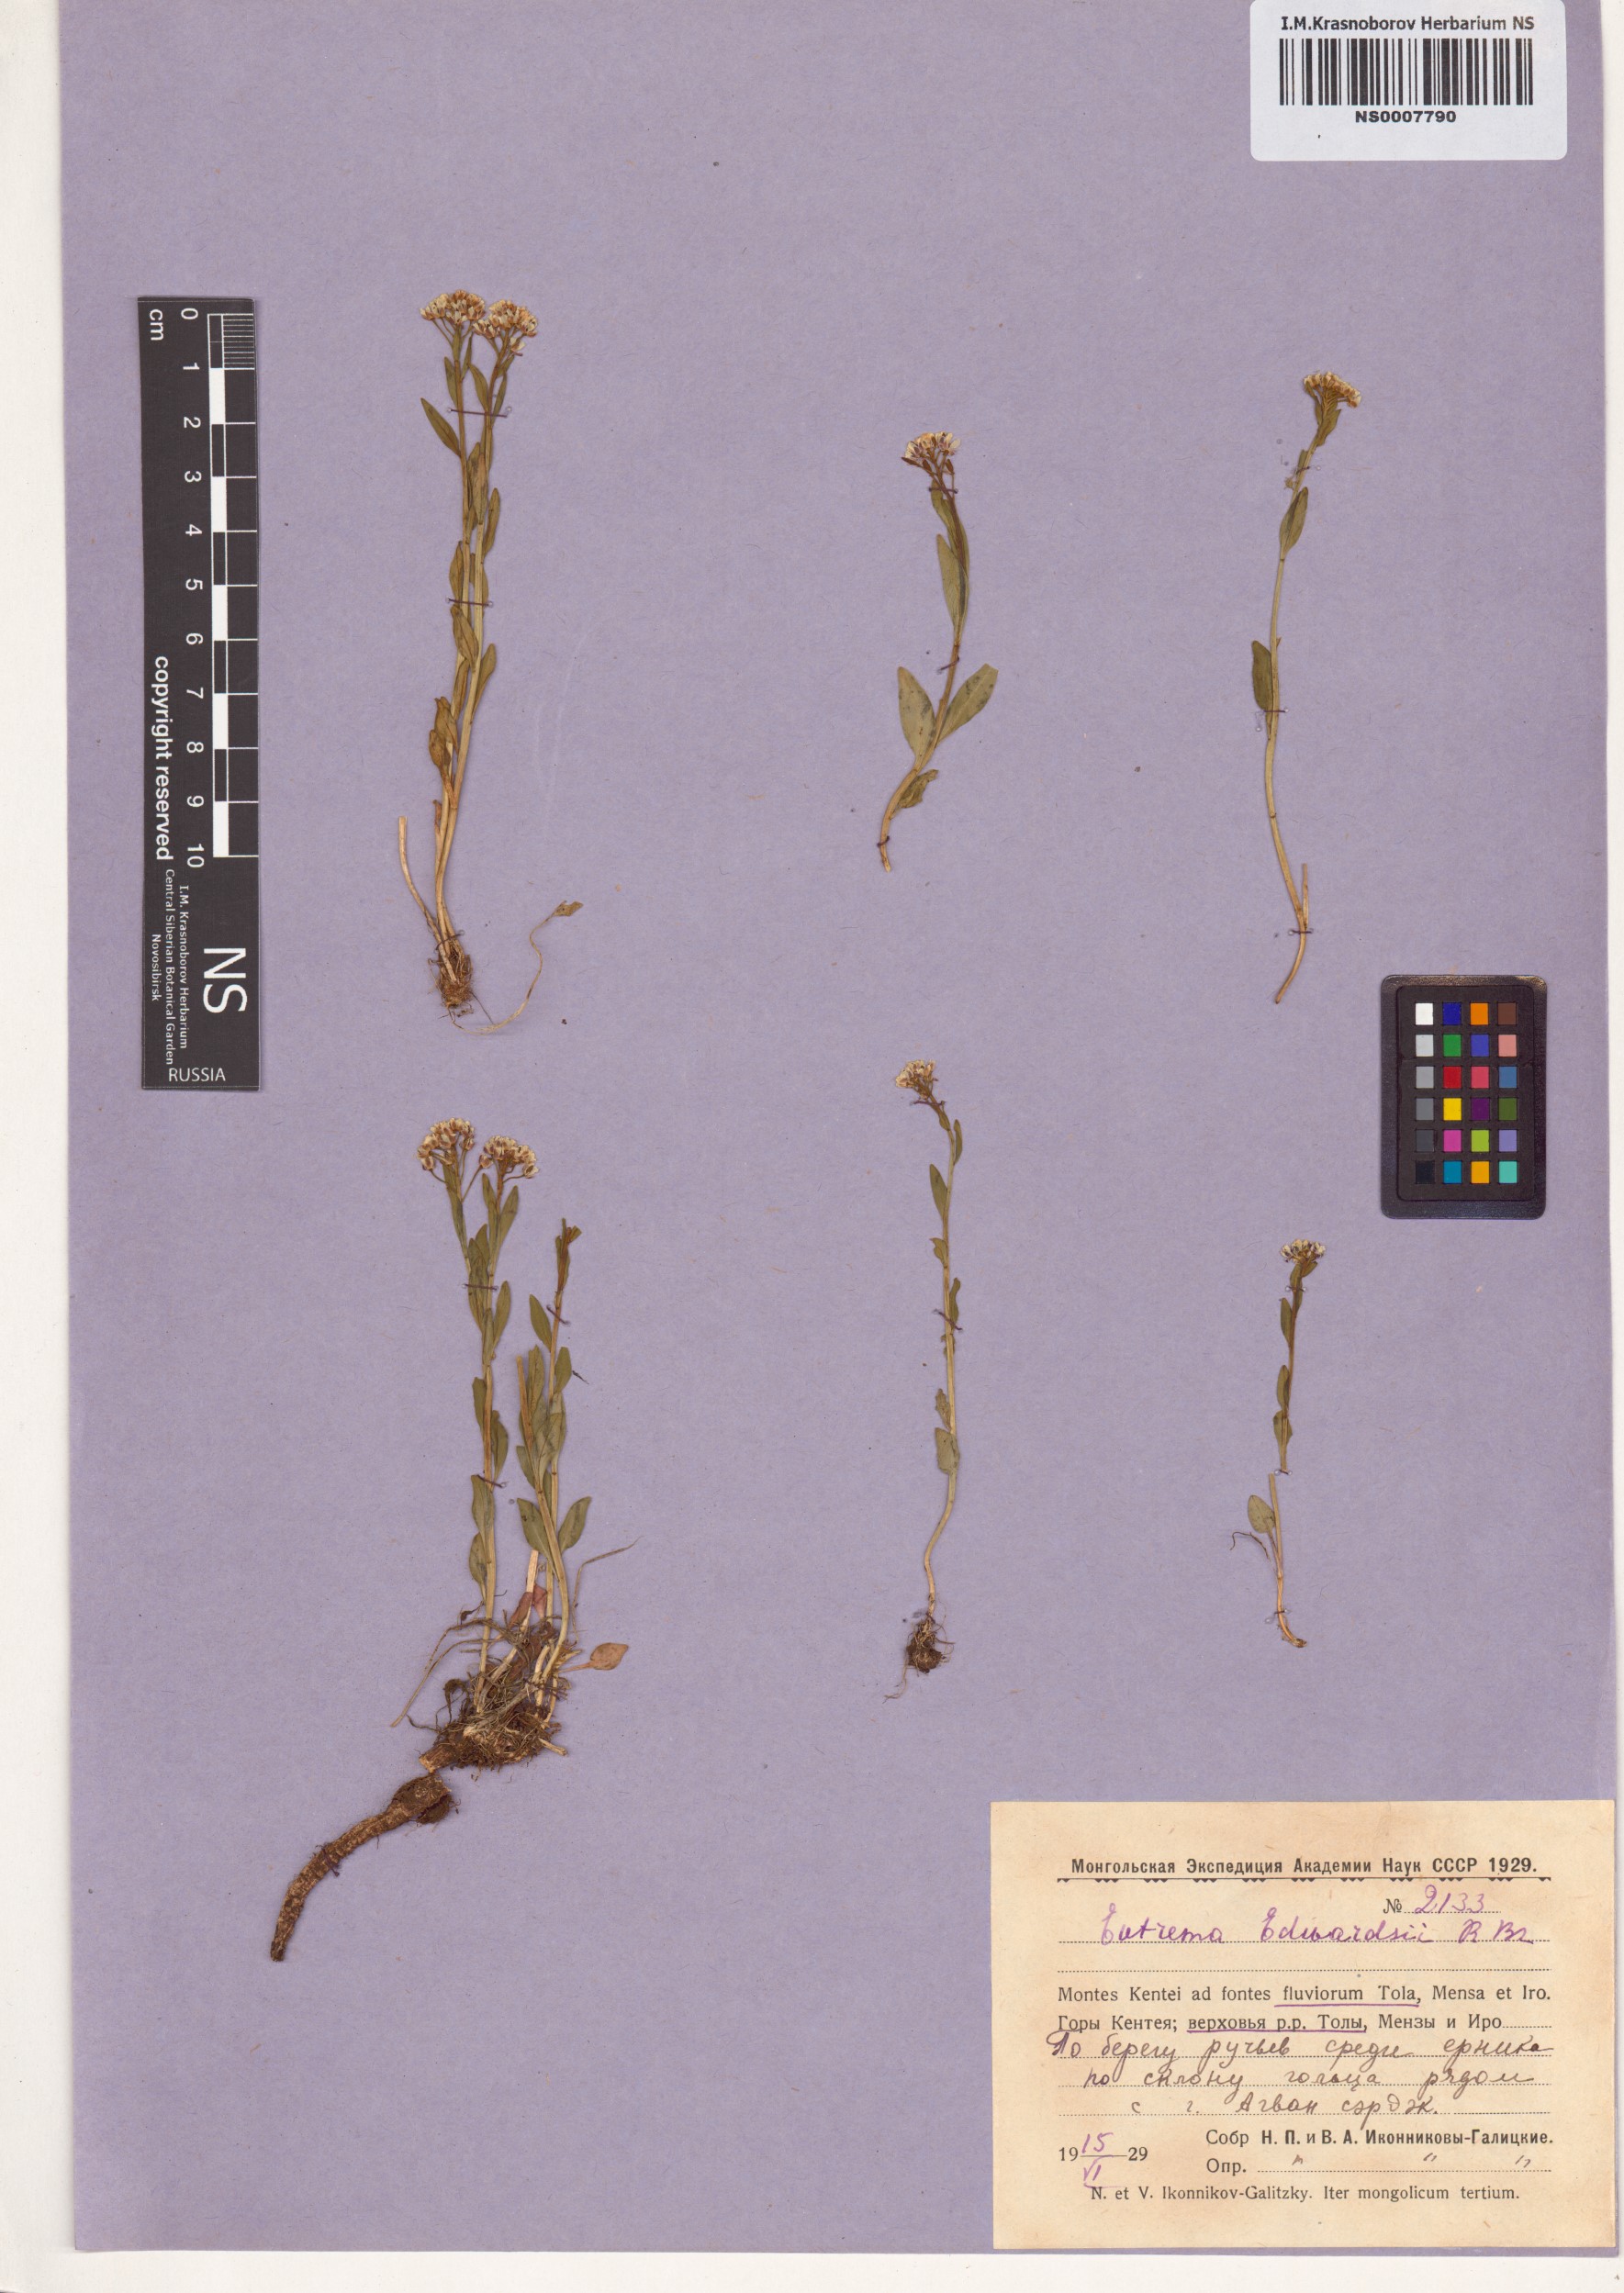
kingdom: Plantae
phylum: Tracheophyta
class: Magnoliopsida
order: Brassicales
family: Brassicaceae
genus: Eutrema
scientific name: Eutrema edwardsii
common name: Penland alpine fen mustard
